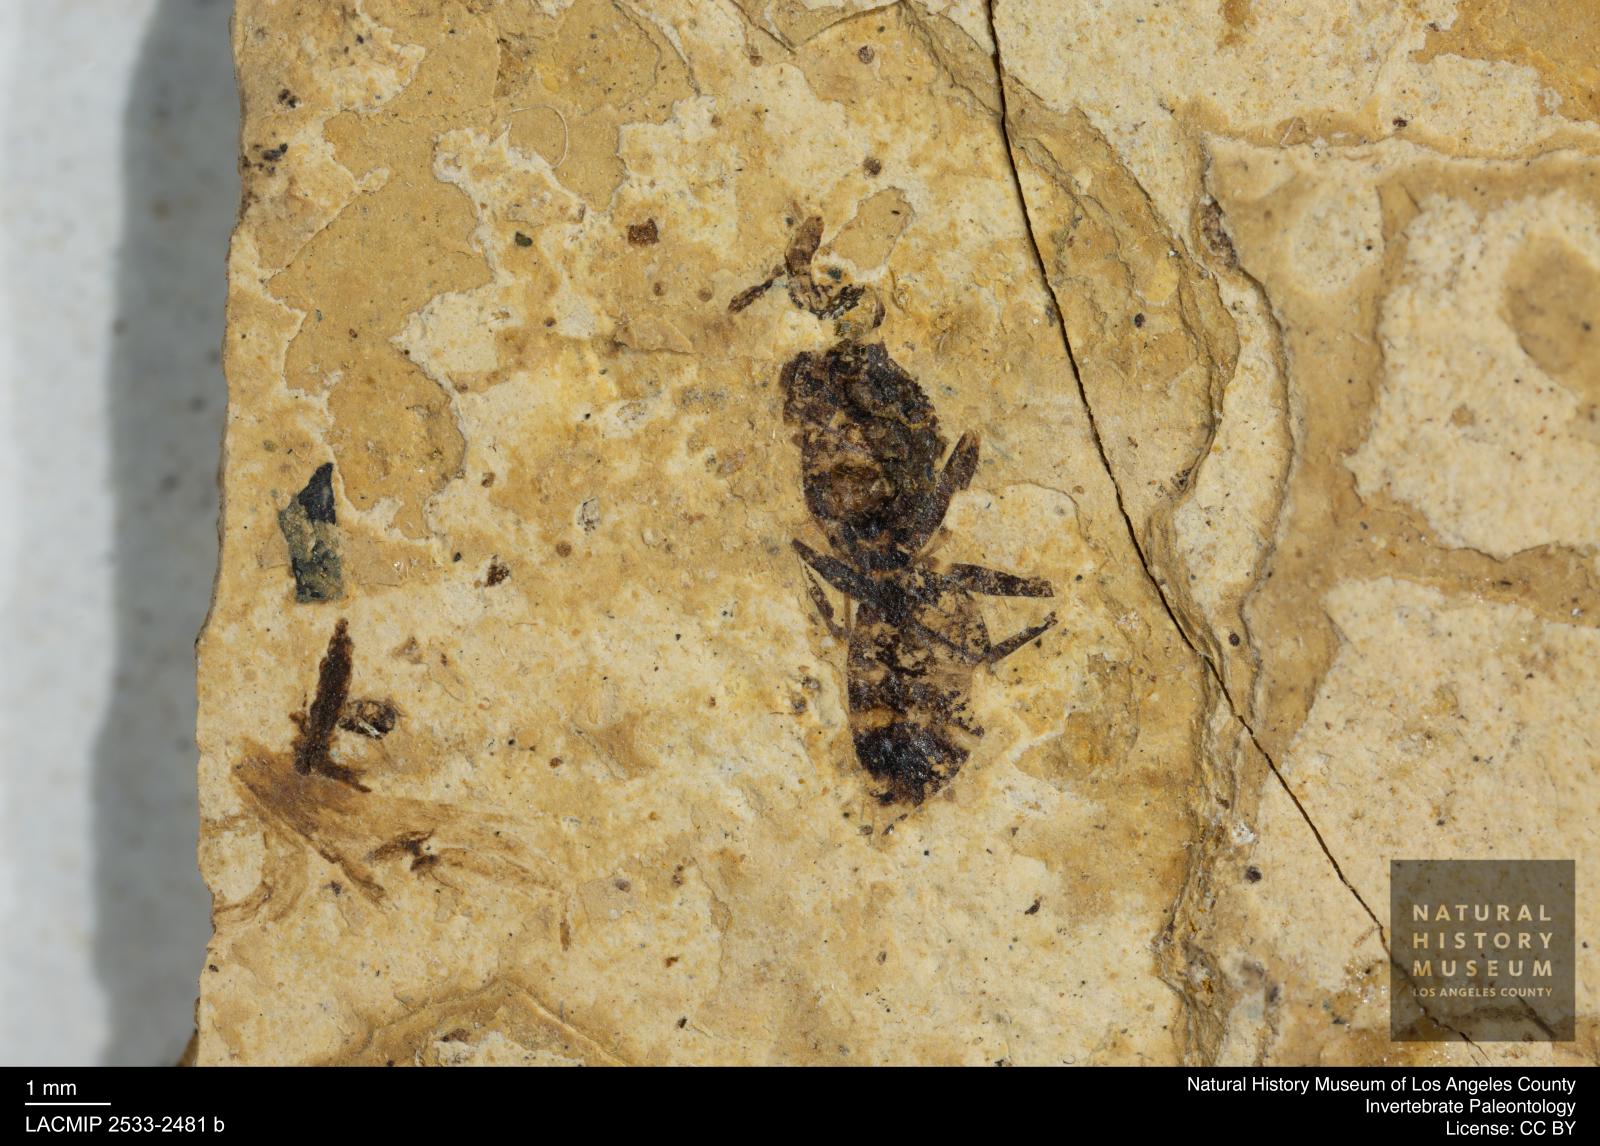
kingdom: Animalia
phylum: Arthropoda
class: Insecta
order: Hymenoptera
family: Formicidae
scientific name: Formicidae
